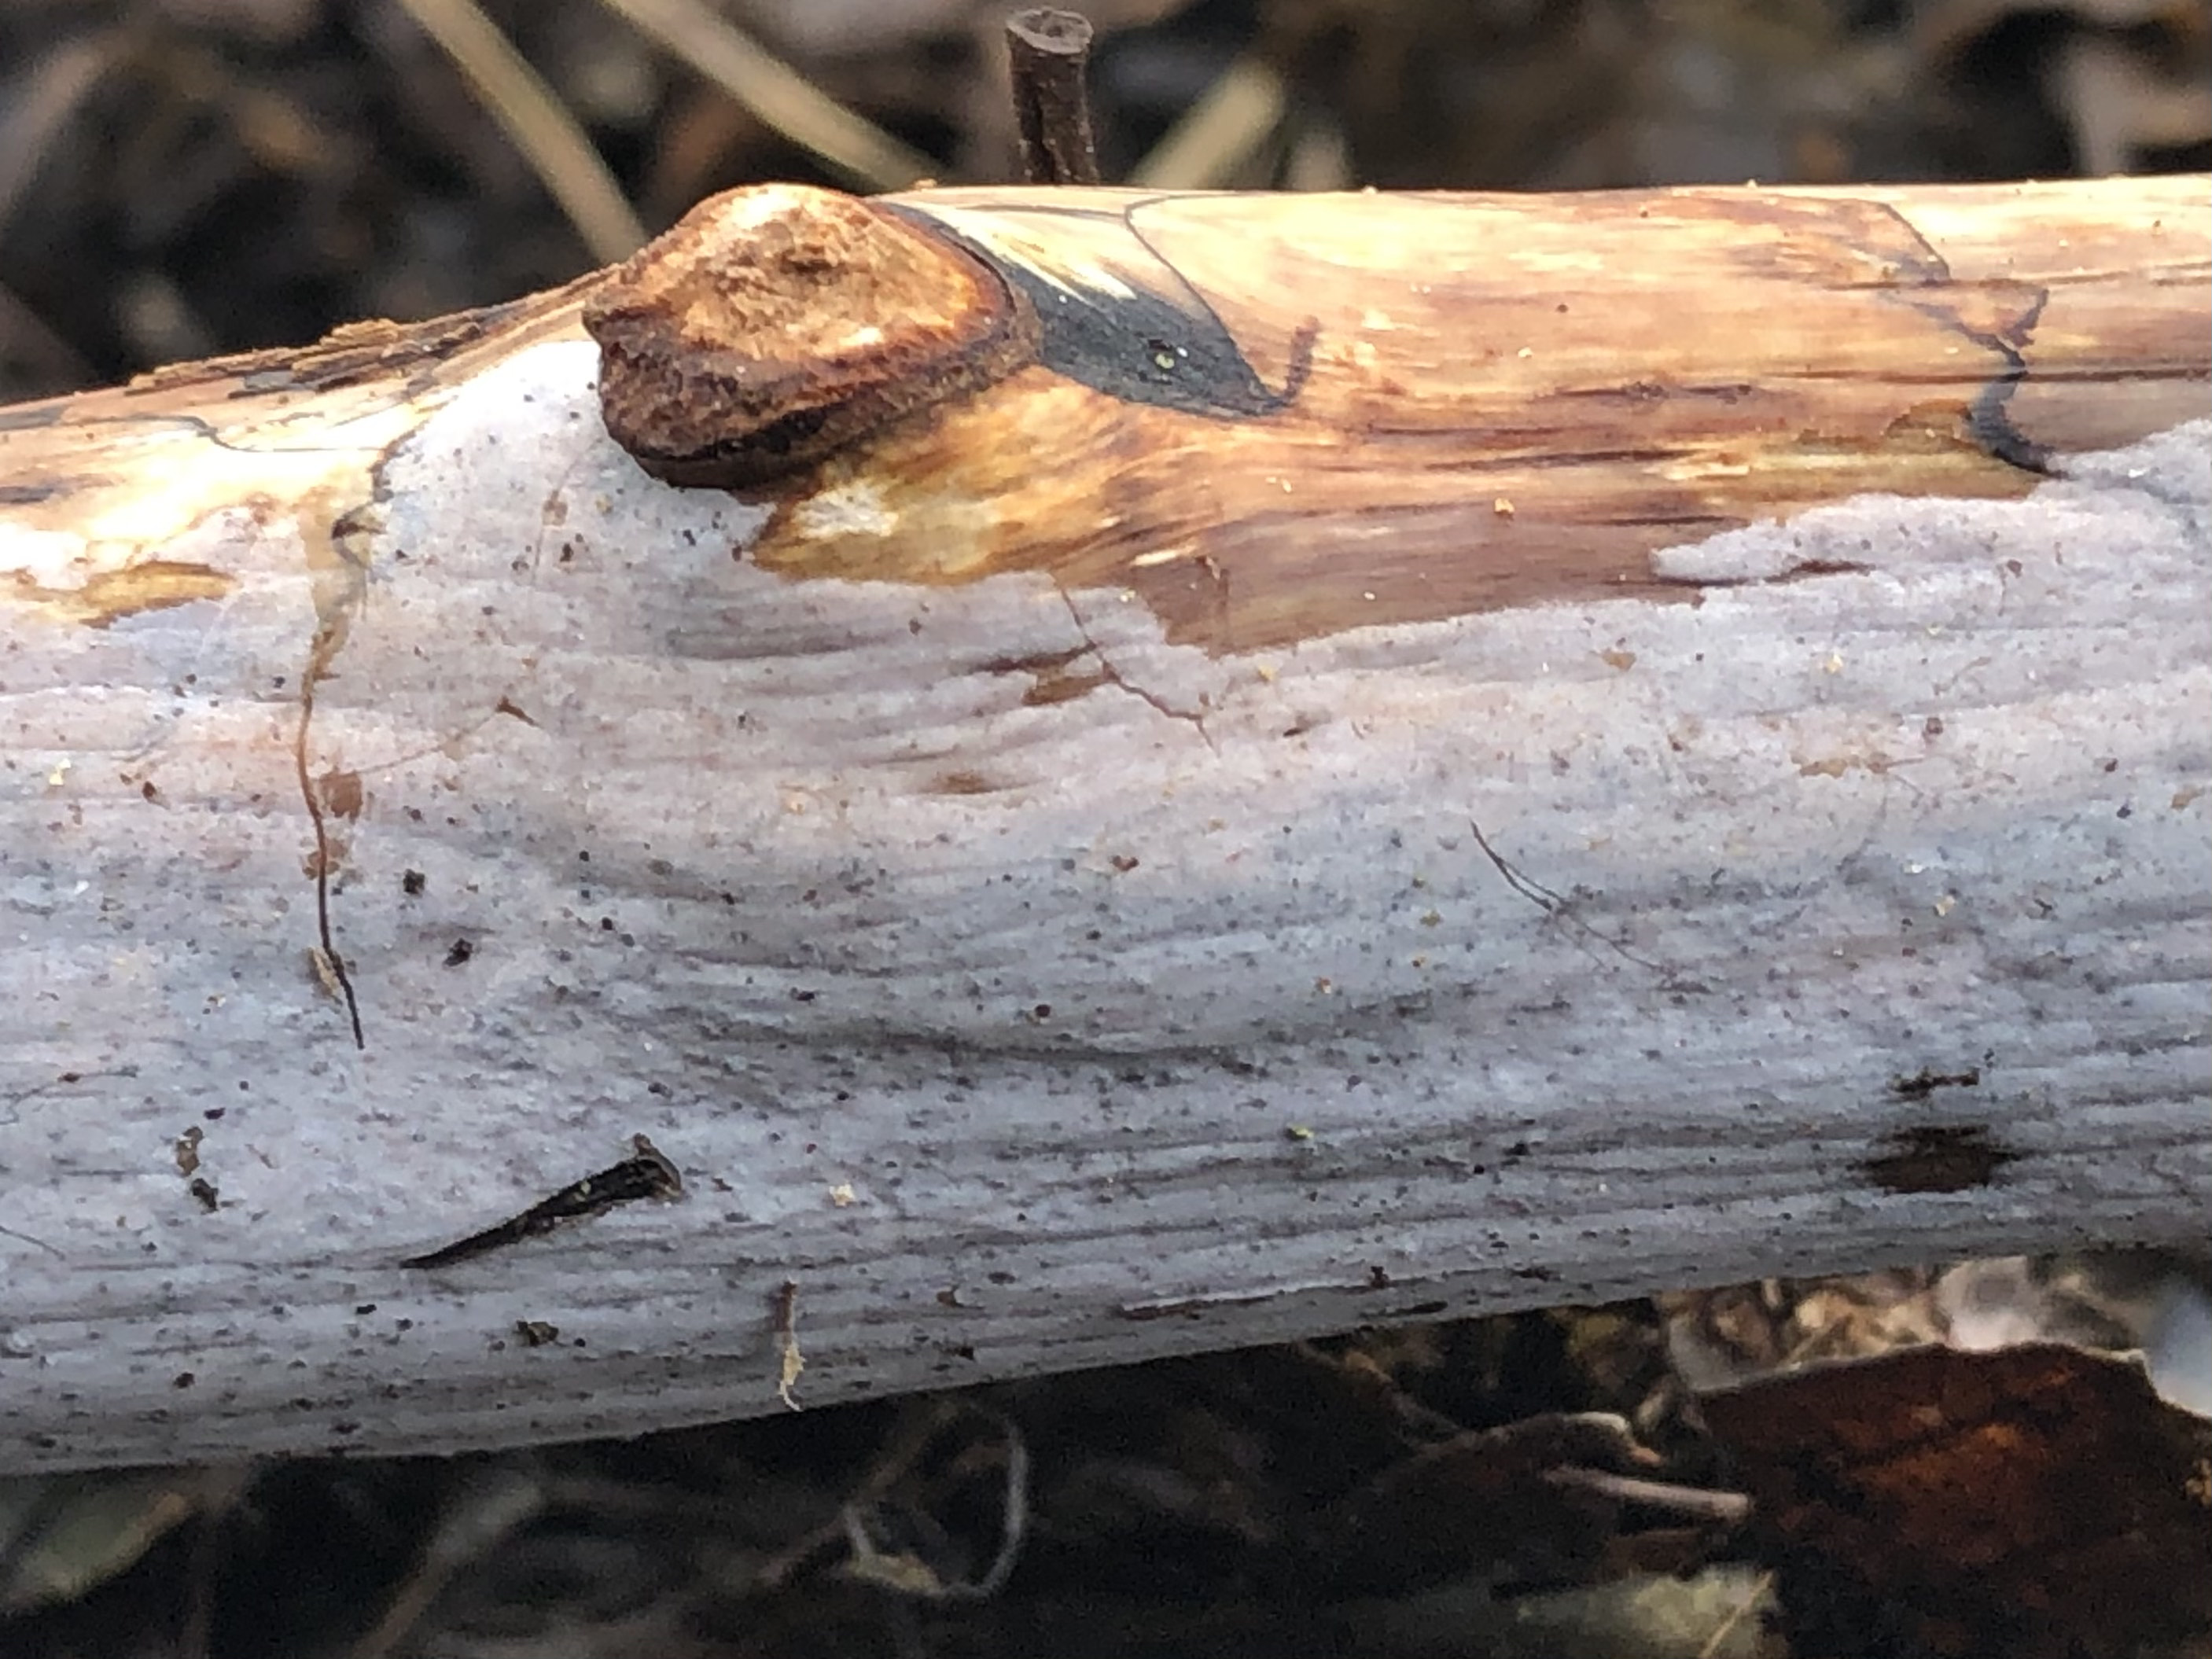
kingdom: Fungi
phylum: Basidiomycota
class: Tremellomycetes
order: Tremellales
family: Exidiaceae
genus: Exidiopsis
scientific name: Exidiopsis effusa
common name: smuk bævrehinde
